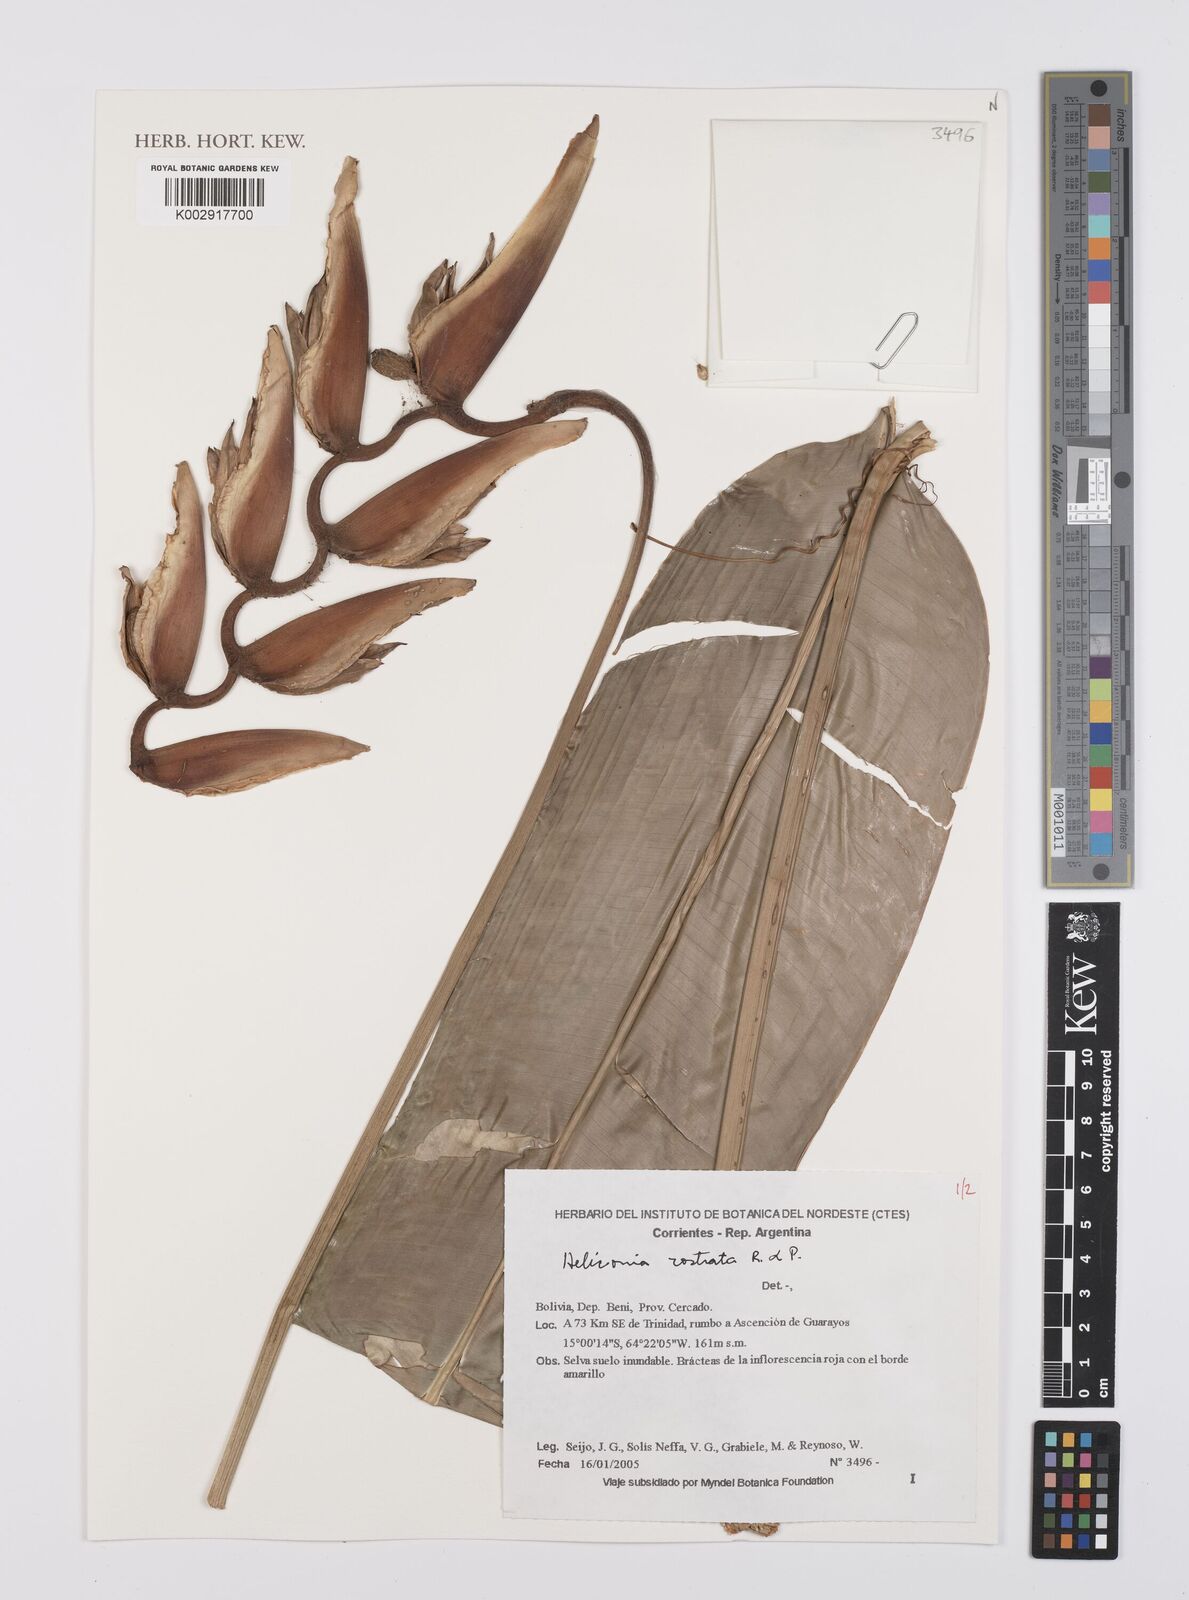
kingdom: Plantae
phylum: Tracheophyta
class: Liliopsida
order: Zingiberales
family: Heliconiaceae
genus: Heliconia
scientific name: Heliconia rostrata
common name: False bird of paradise
